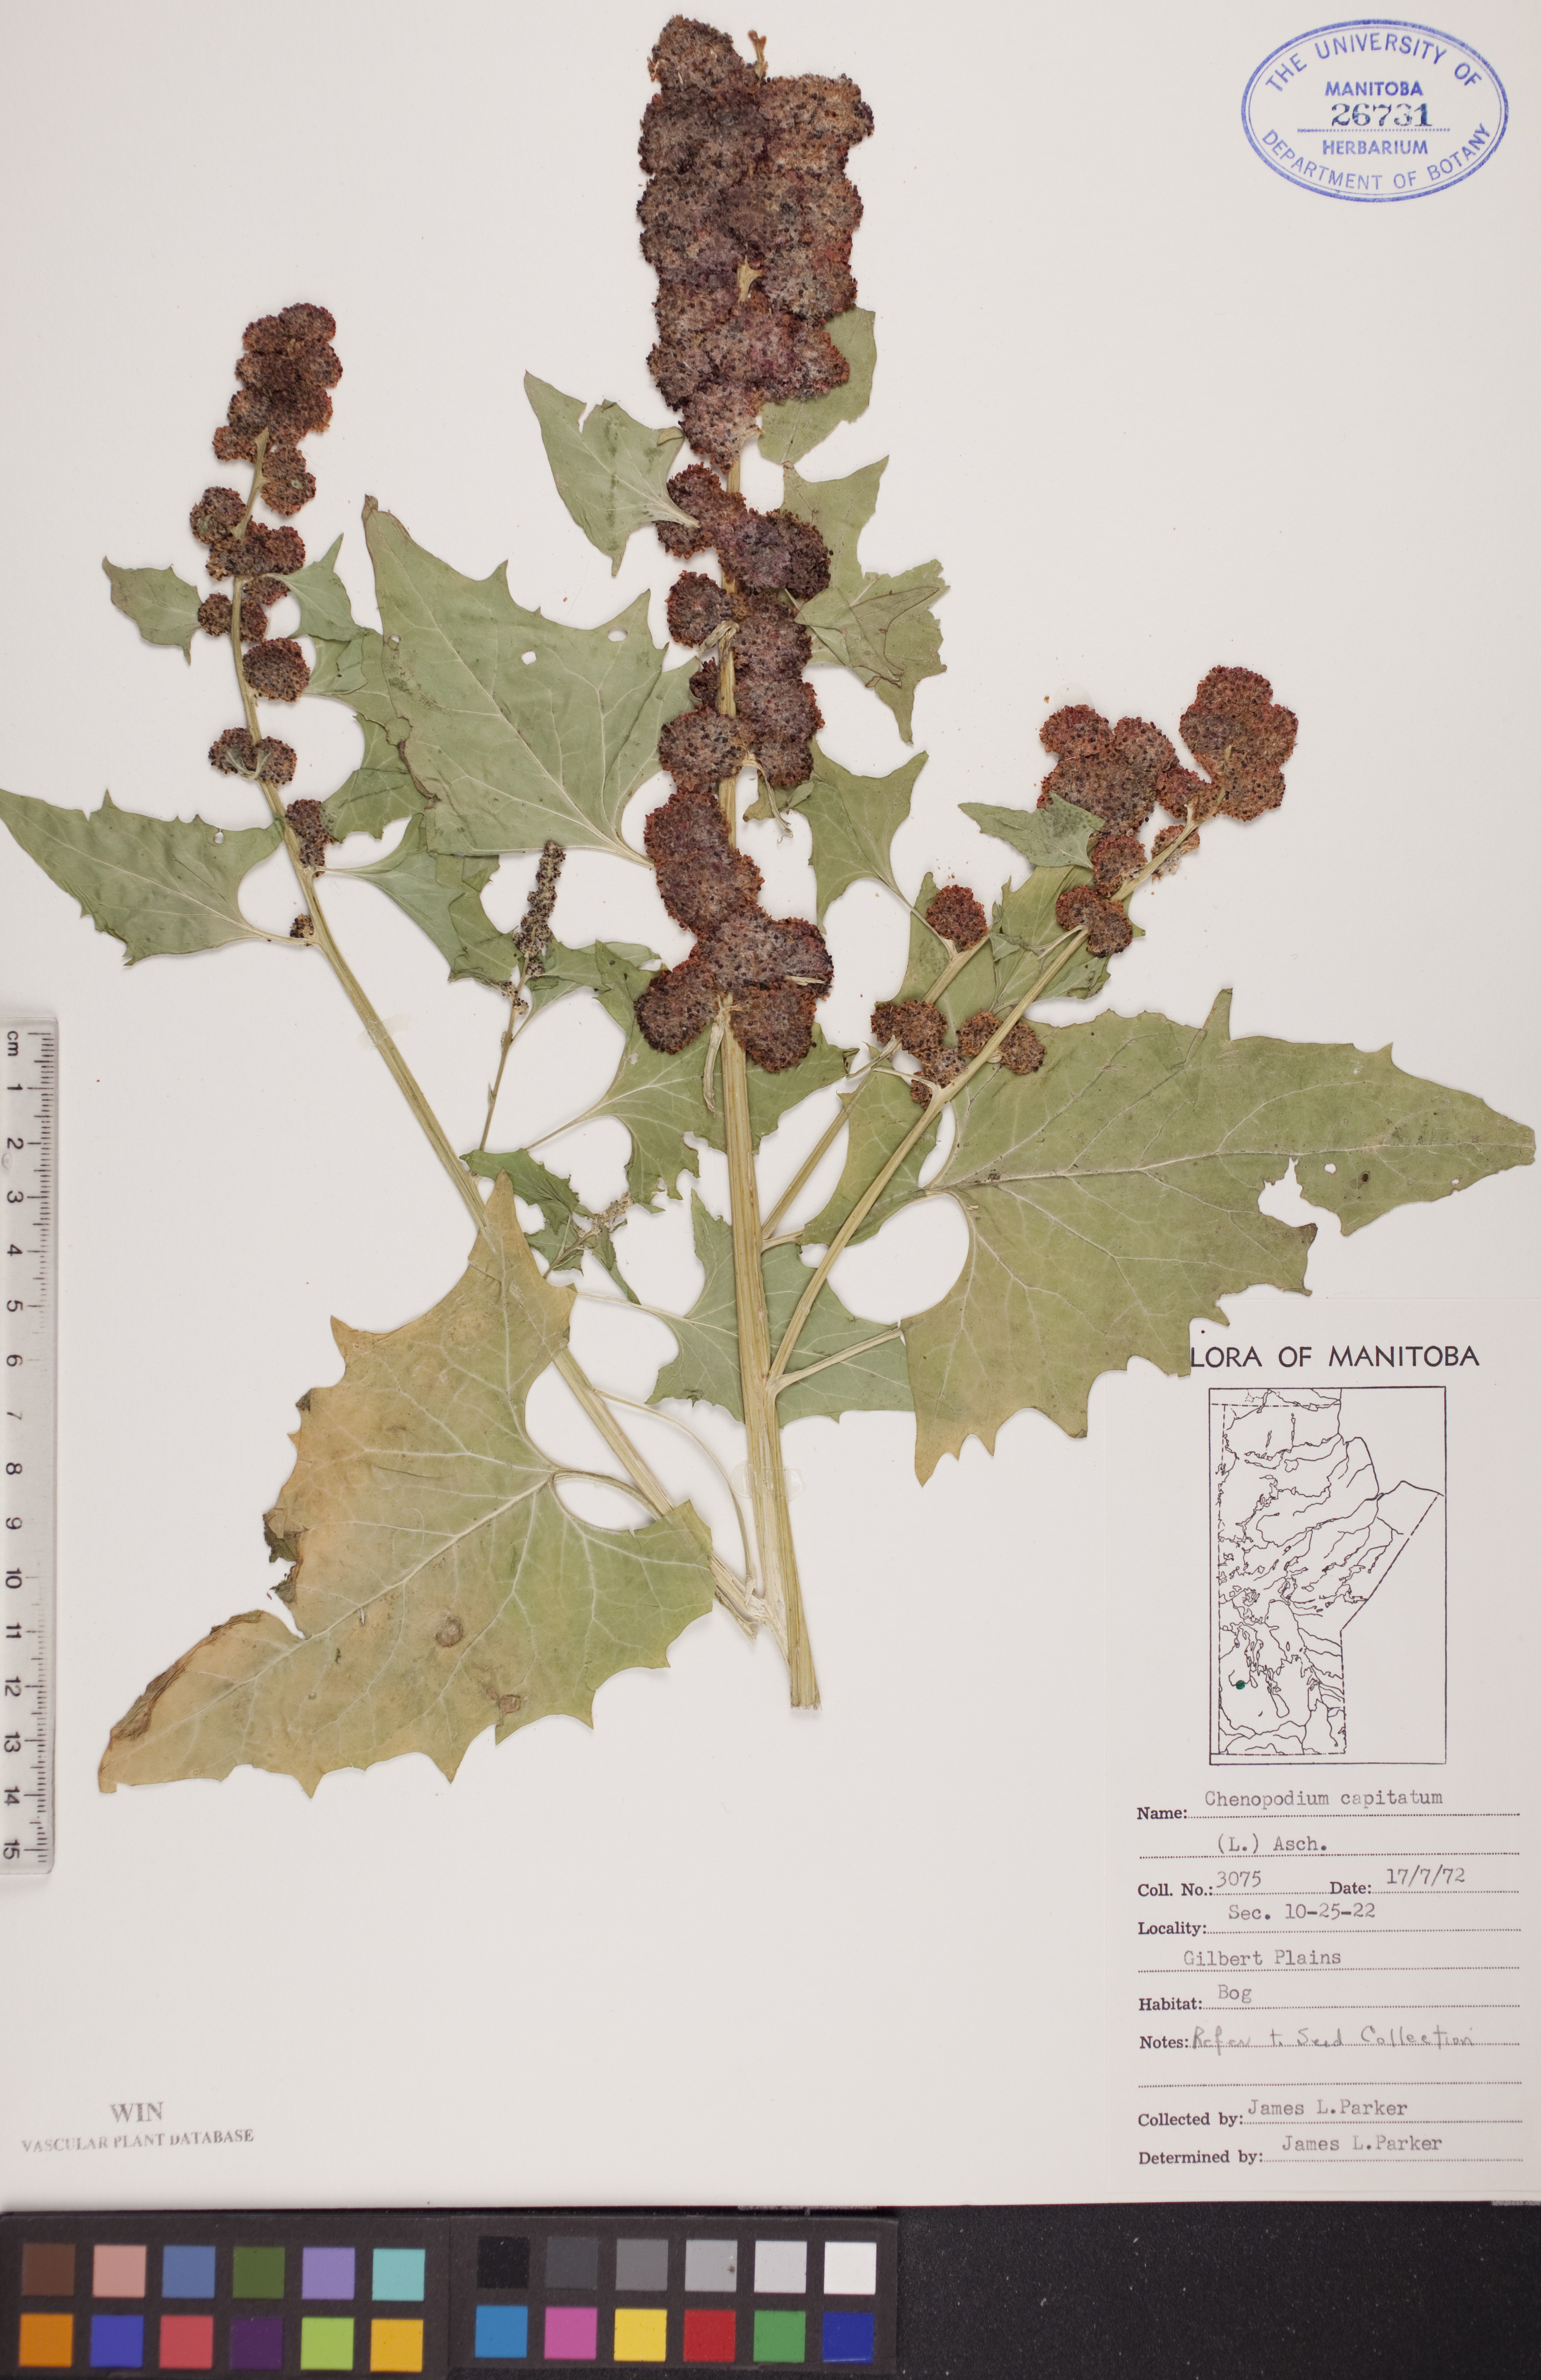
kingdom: Plantae
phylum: Tracheophyta
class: Magnoliopsida
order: Caryophyllales
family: Amaranthaceae
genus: Blitum
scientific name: Blitum capitatum
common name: Strawberry-blight
